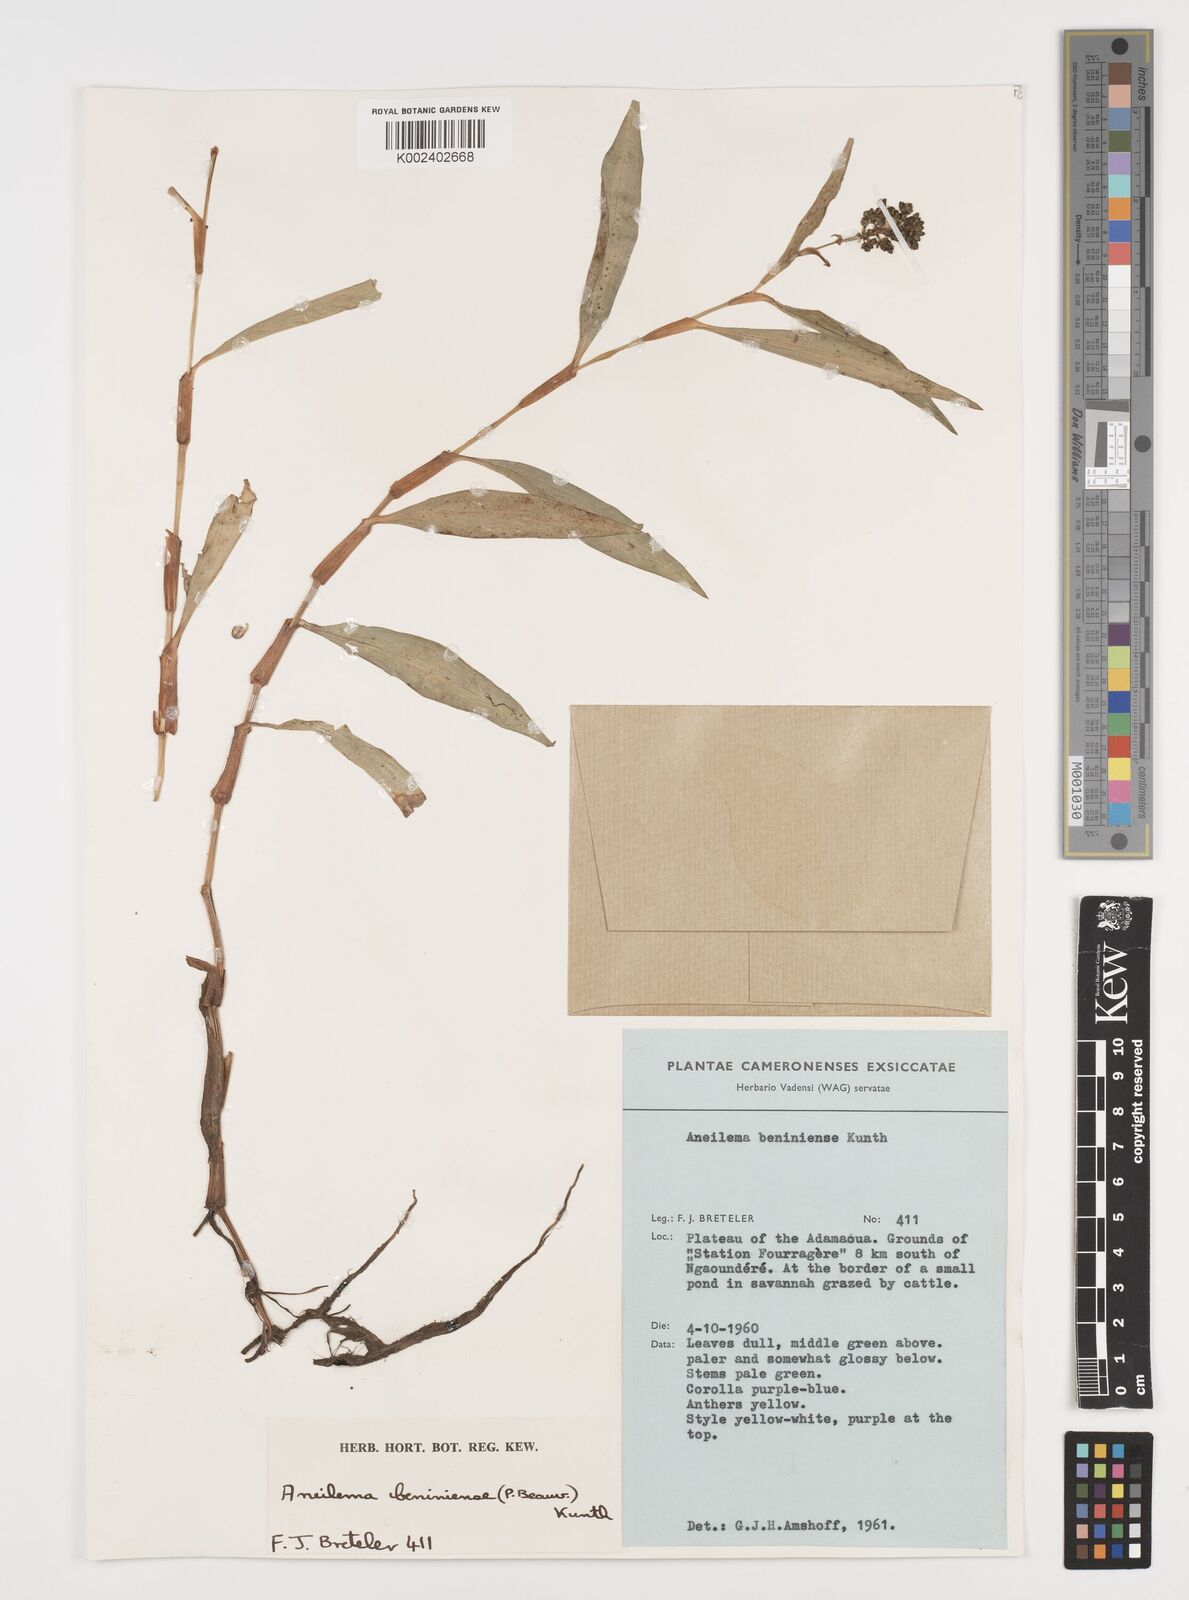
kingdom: Plantae
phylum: Tracheophyta
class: Liliopsida
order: Commelinales
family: Commelinaceae
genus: Aneilema
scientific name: Aneilema beniniense
